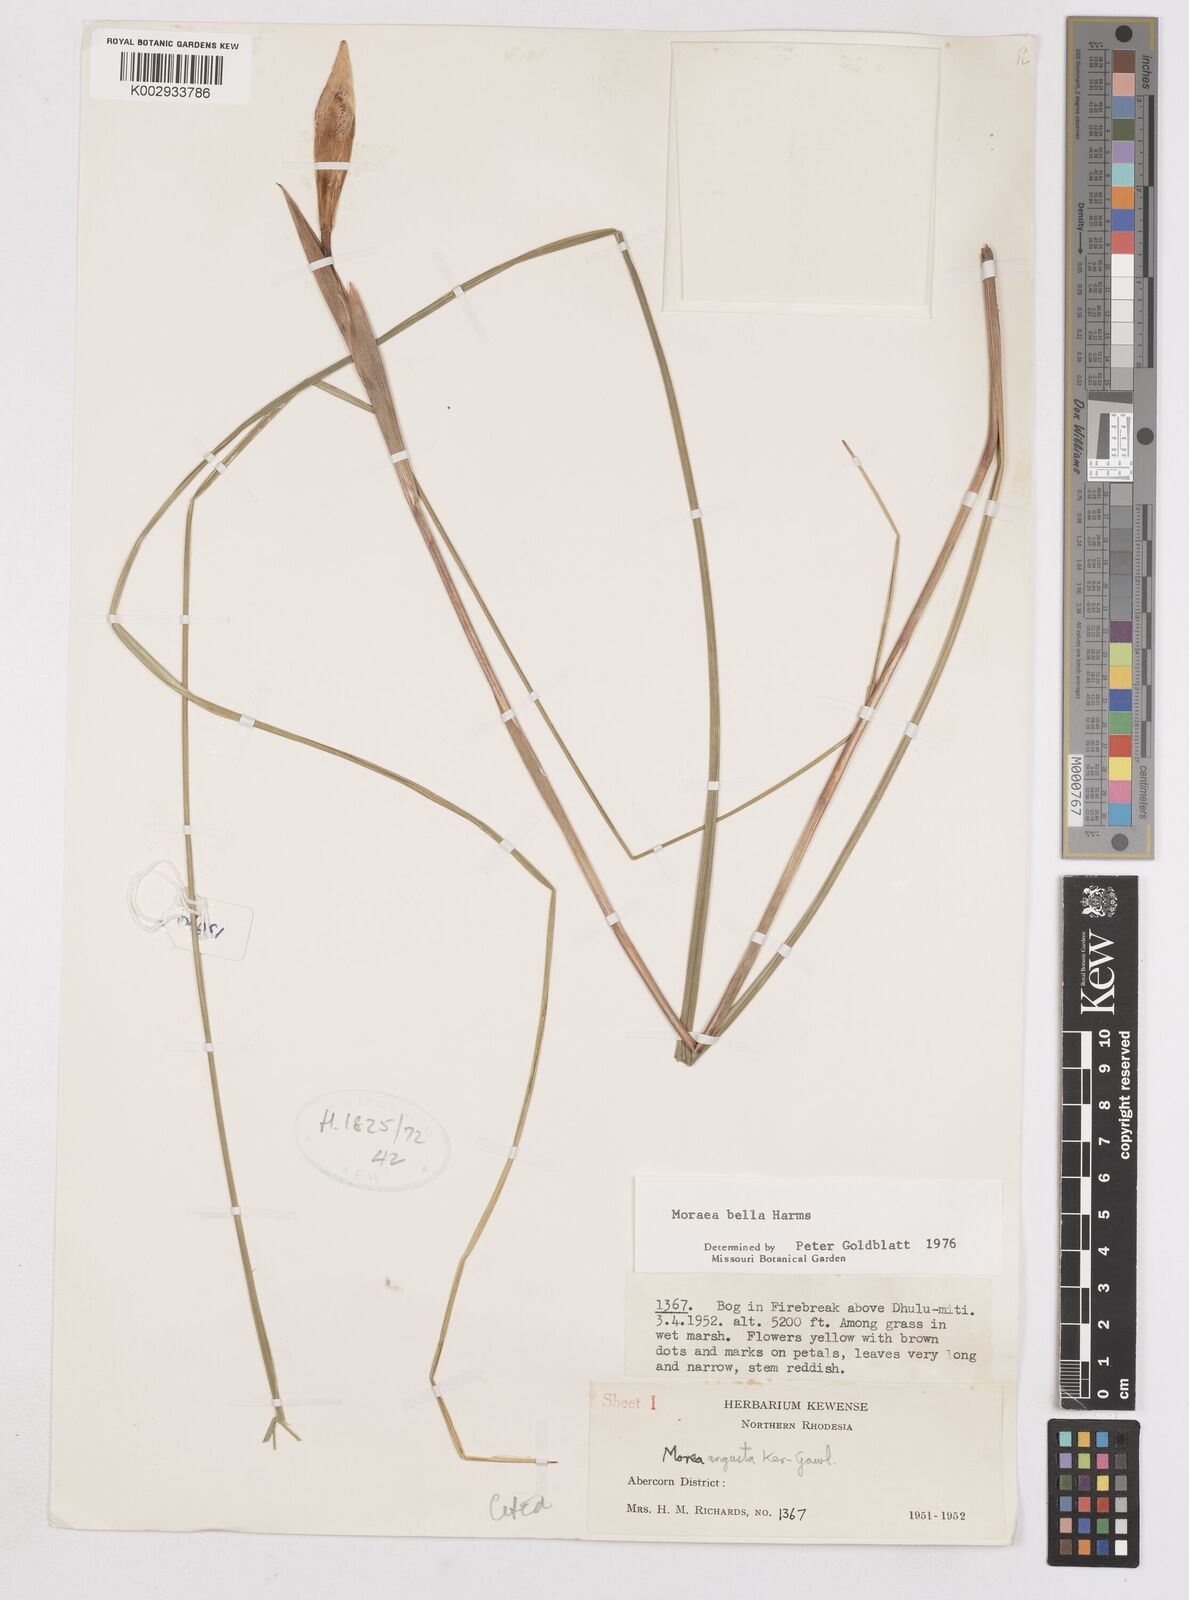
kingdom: Plantae
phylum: Tracheophyta
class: Liliopsida
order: Asparagales
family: Iridaceae
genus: Moraea
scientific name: Moraea bella
